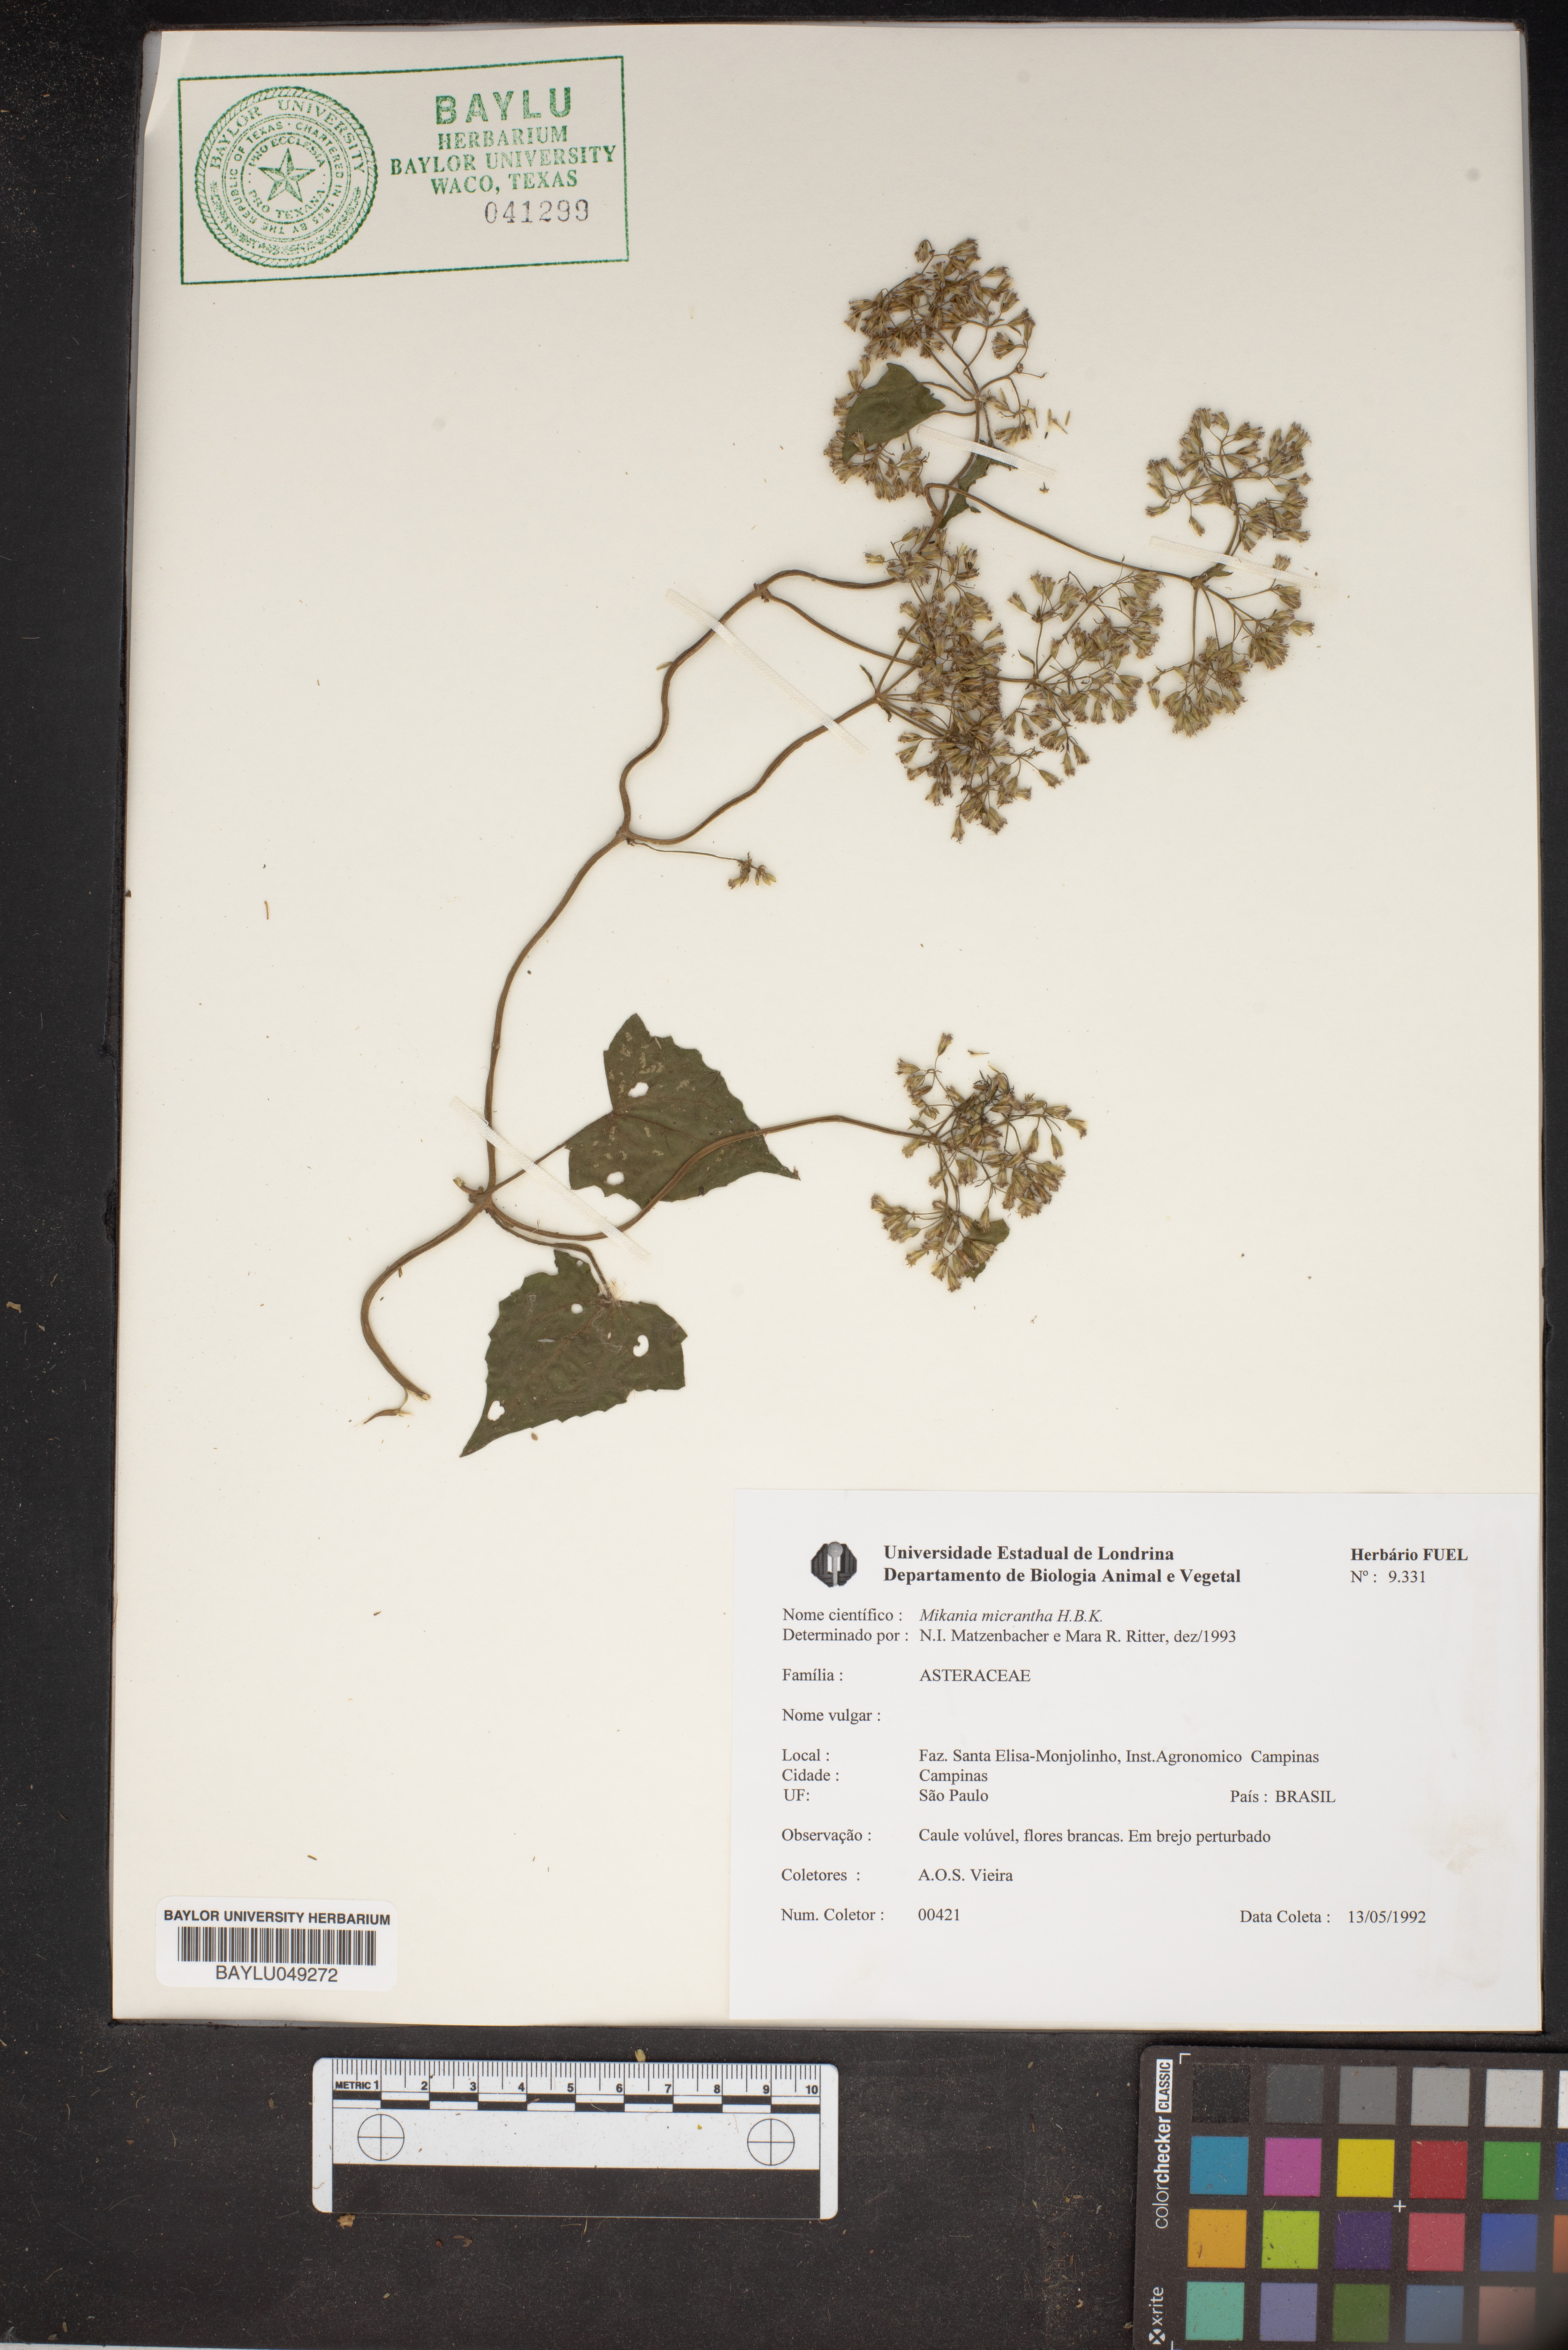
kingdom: Plantae
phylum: Tracheophyta
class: Magnoliopsida
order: Asterales
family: Asteraceae
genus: Mikania
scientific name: Mikania micrantha
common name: Mile-a-minute
